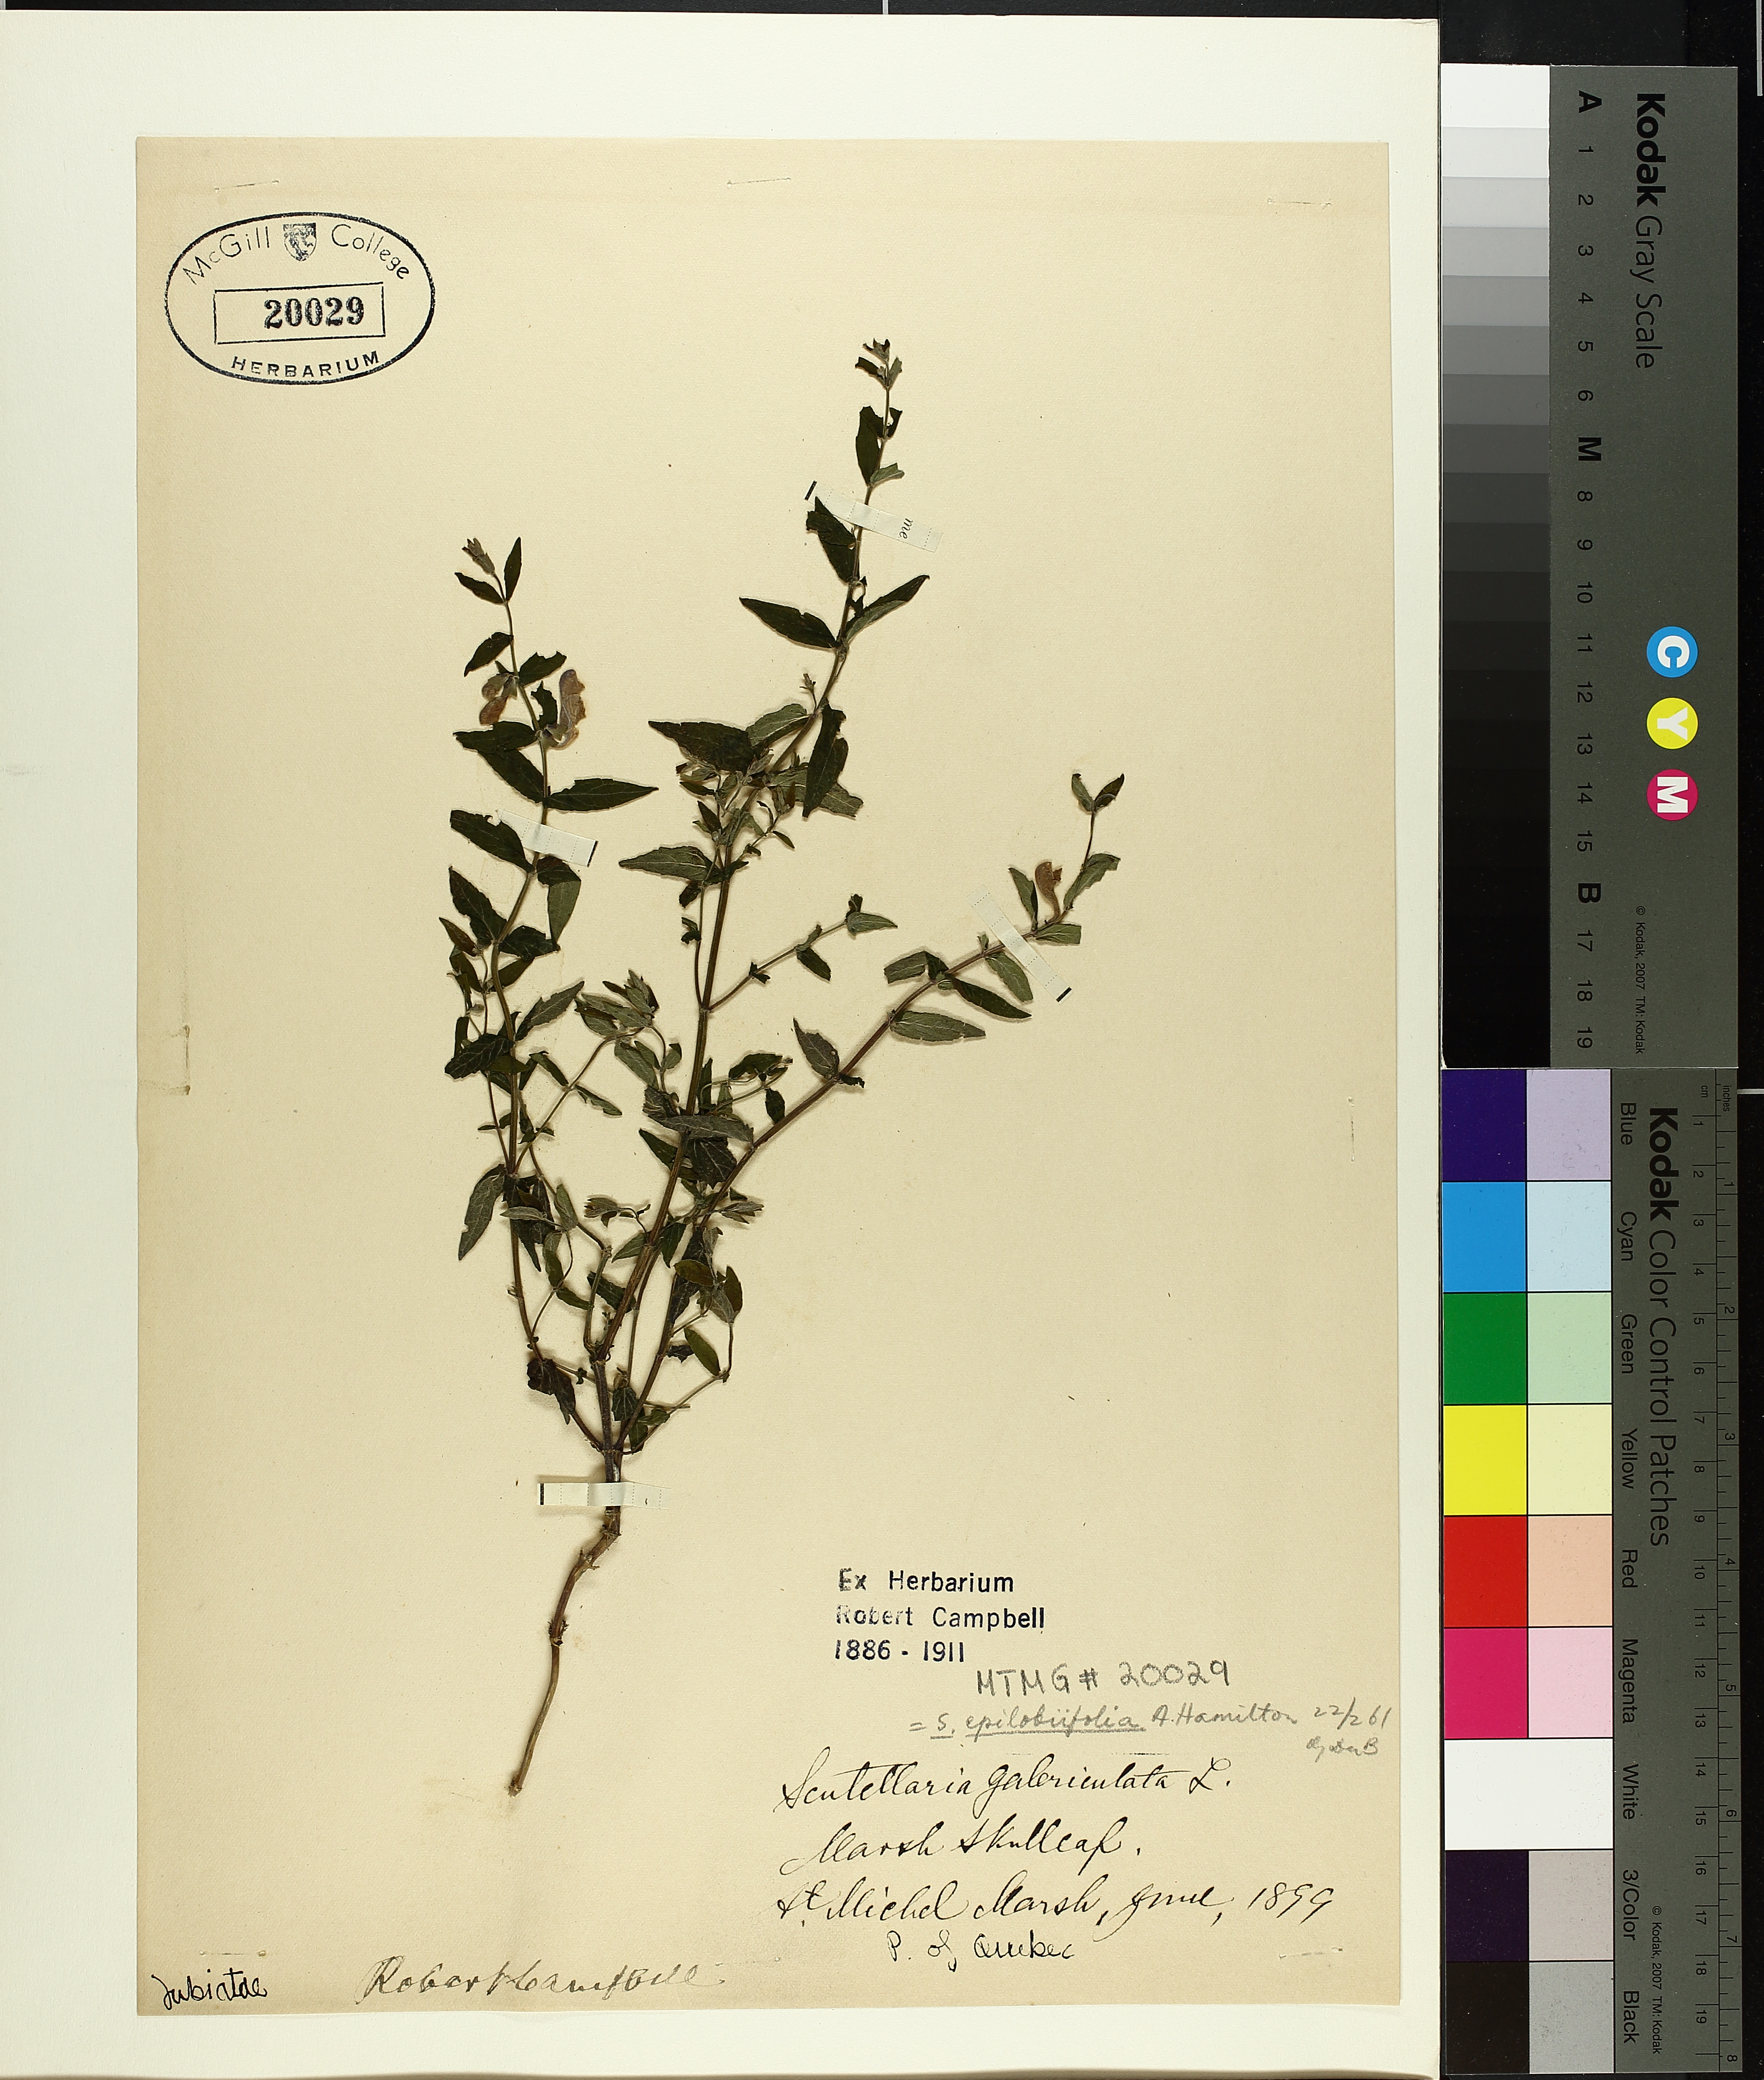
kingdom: Plantae
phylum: Tracheophyta
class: Magnoliopsida
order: Lamiales
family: Lamiaceae
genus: Scutellaria
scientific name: Scutellaria galericulata
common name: Skullcap
